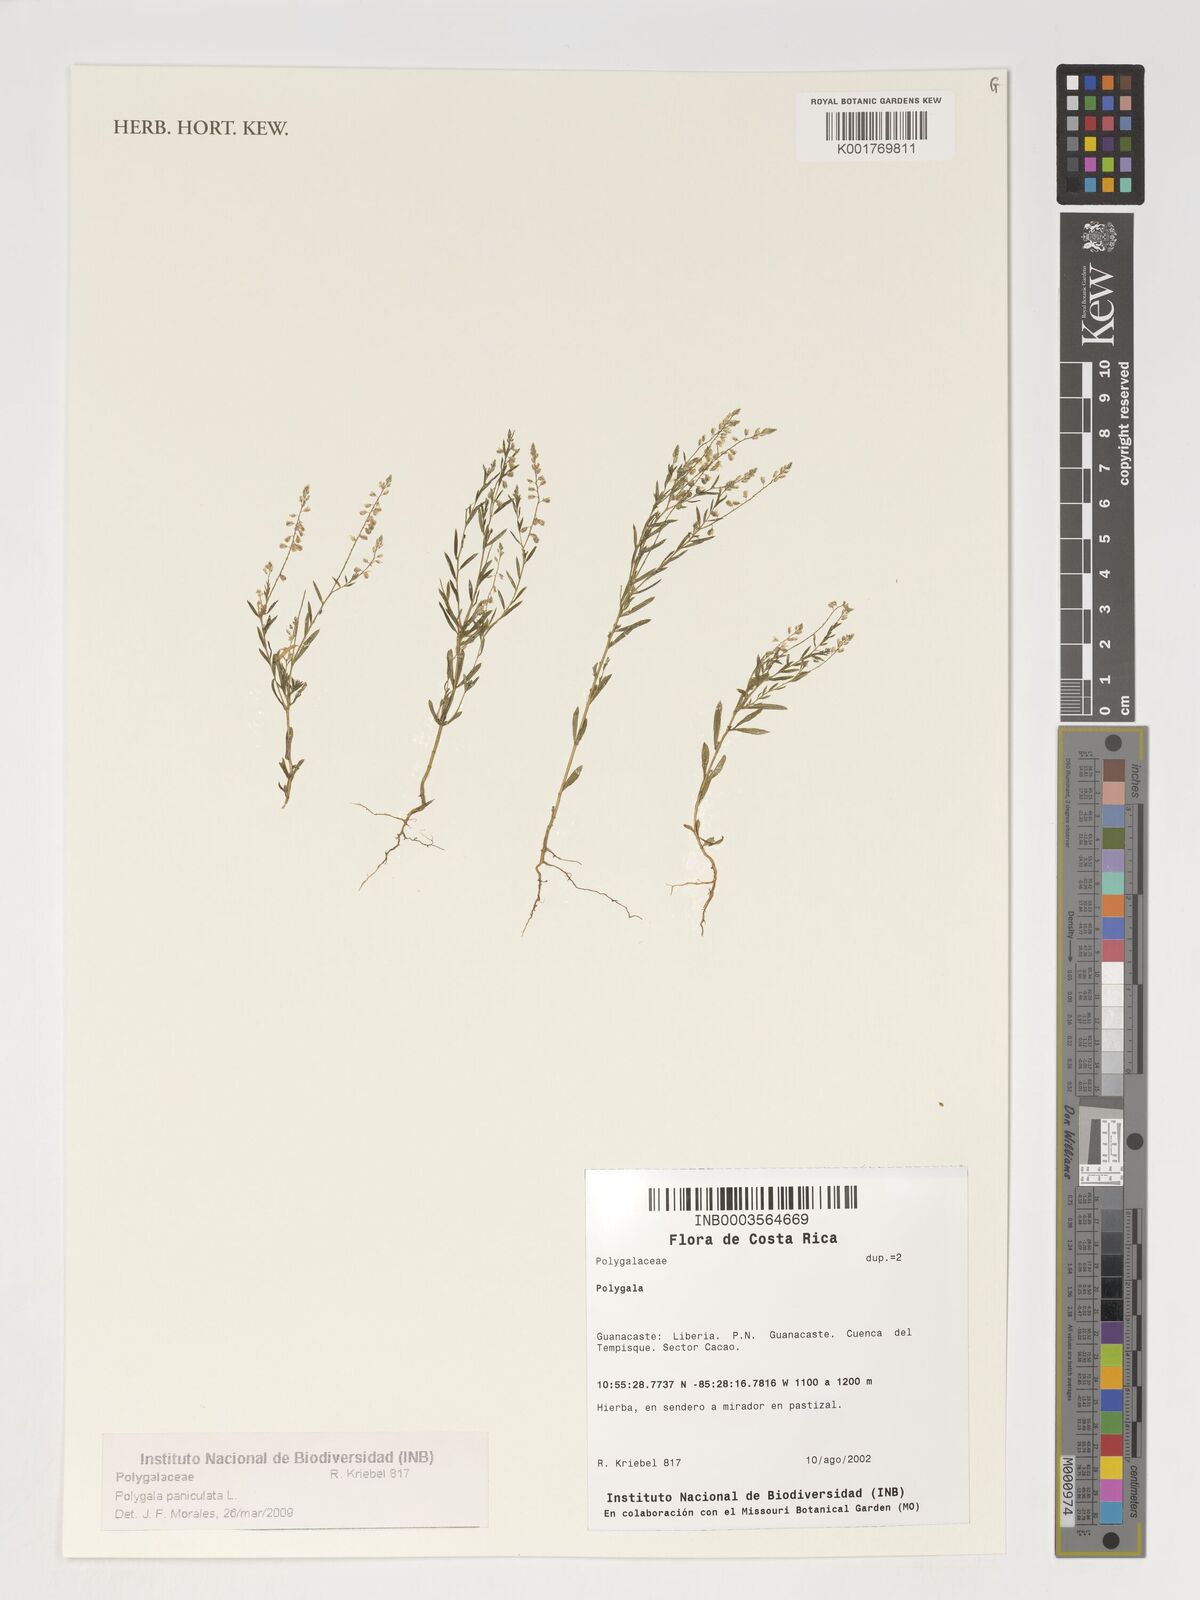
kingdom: Plantae
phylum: Tracheophyta
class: Magnoliopsida
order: Fabales
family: Polygalaceae
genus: Polygala
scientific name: Polygala paniculata
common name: Orosne
